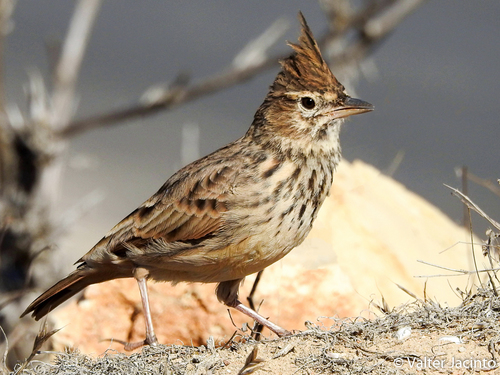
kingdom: Animalia
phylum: Chordata
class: Aves
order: Passeriformes
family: Alaudidae
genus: Galerida
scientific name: Galerida theklae
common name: Thekla lark
